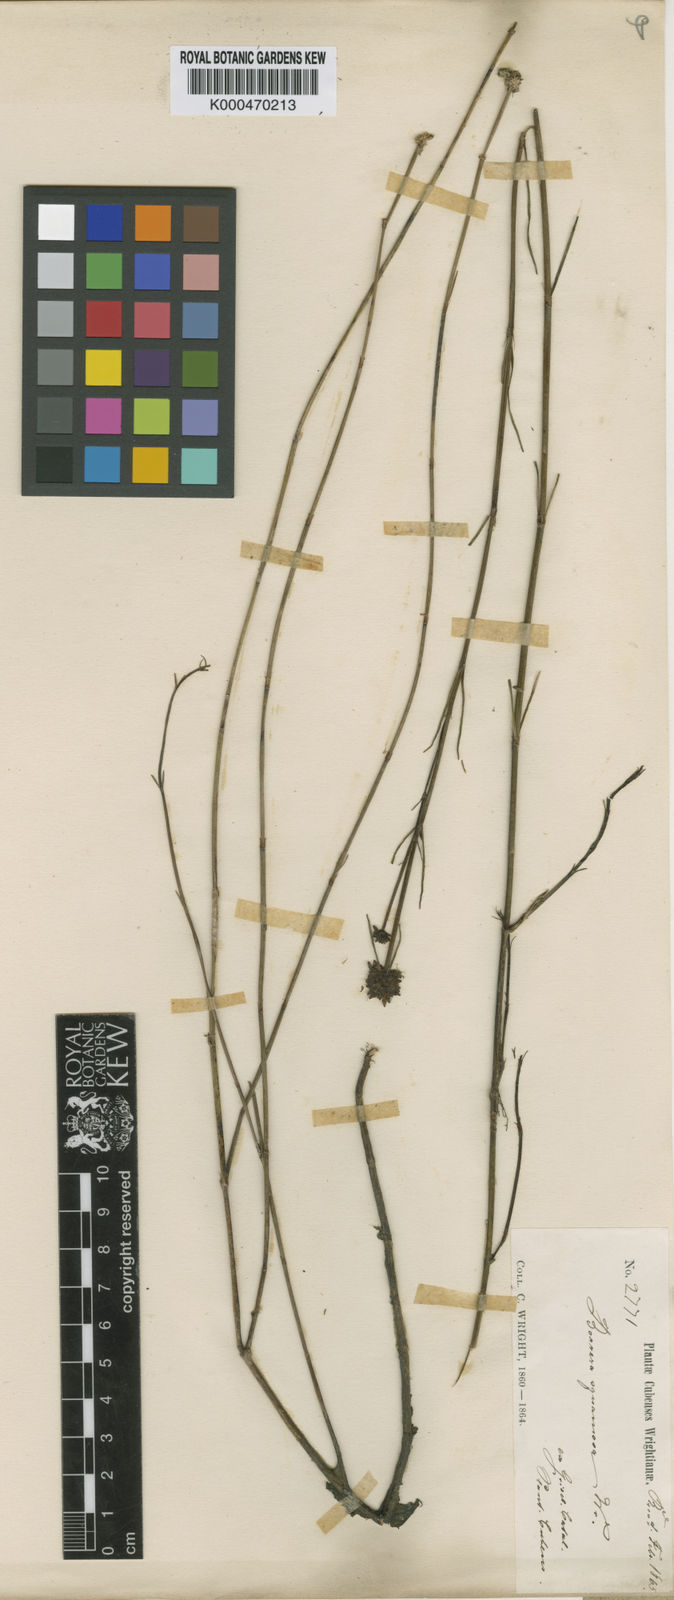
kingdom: Plantae
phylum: Tracheophyta
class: Magnoliopsida
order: Gentianales
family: Rubiaceae
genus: Spermacoce
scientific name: Spermacoce squamosa
